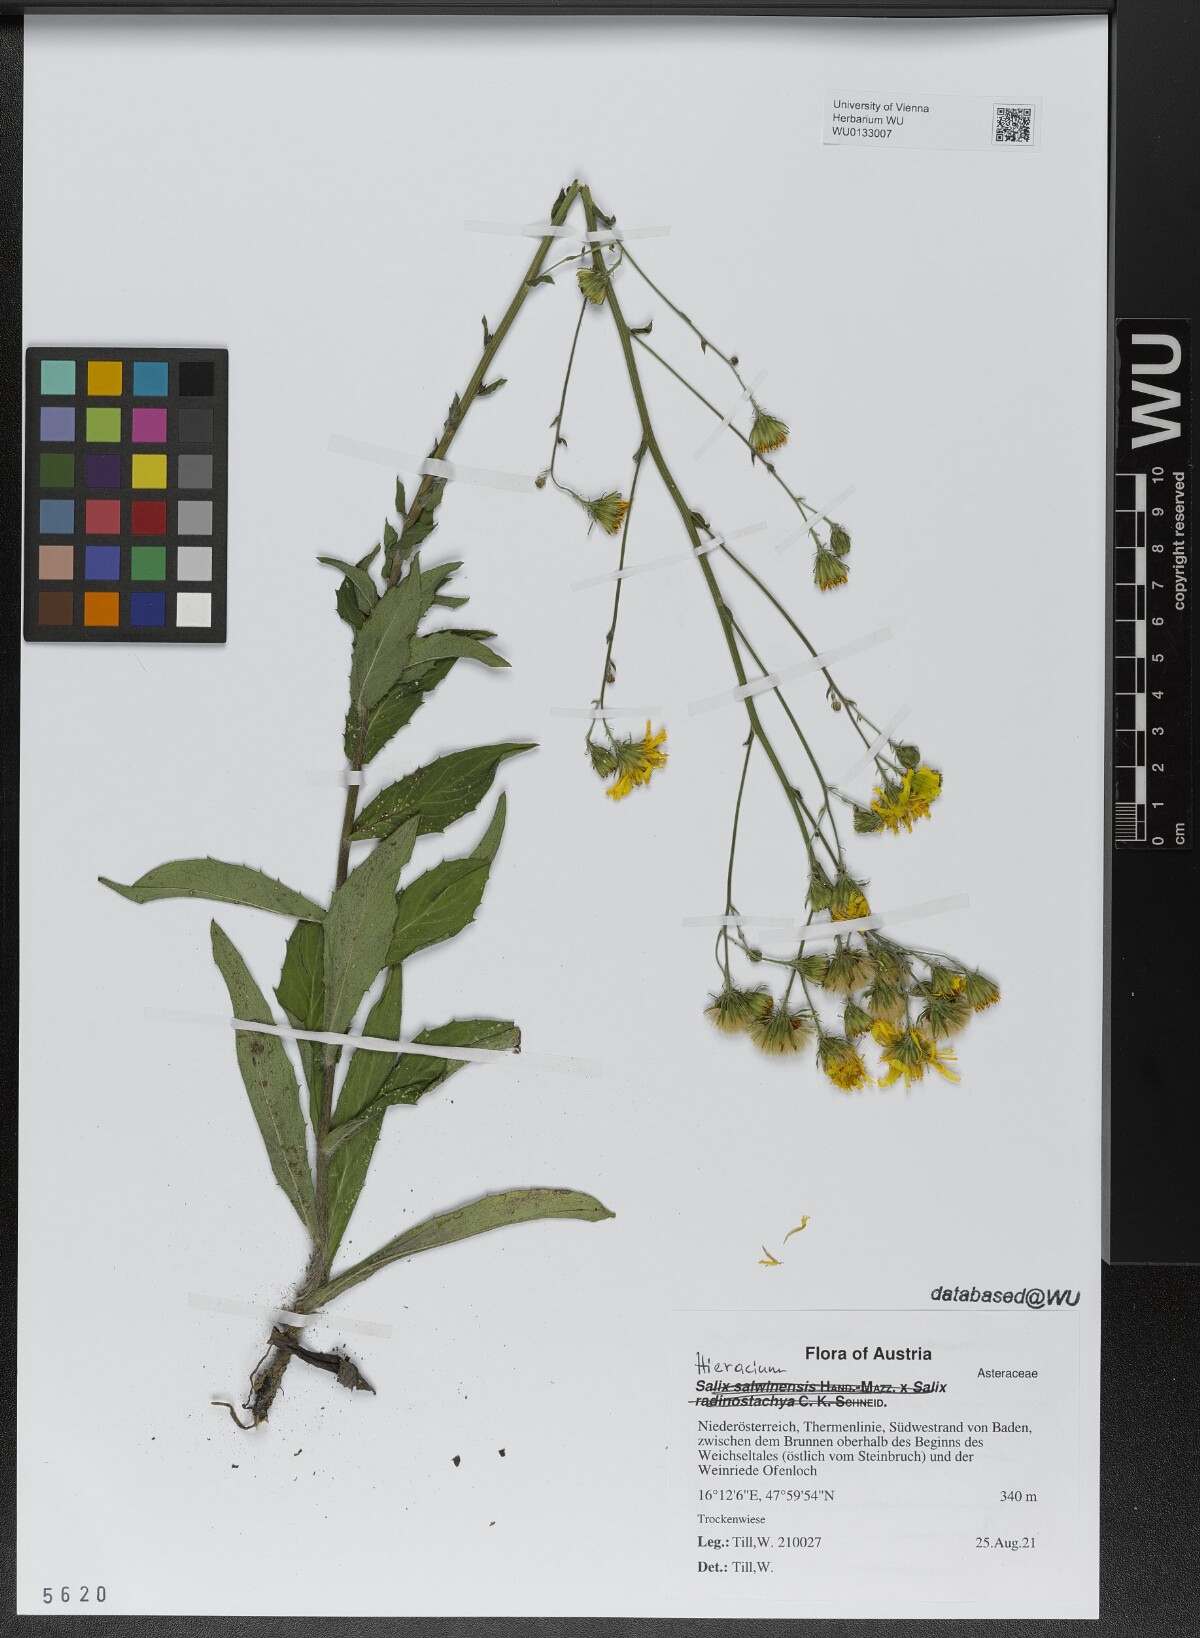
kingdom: Plantae
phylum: Tracheophyta
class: Magnoliopsida
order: Asterales
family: Asteraceae
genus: Hieracium
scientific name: Hieracium
